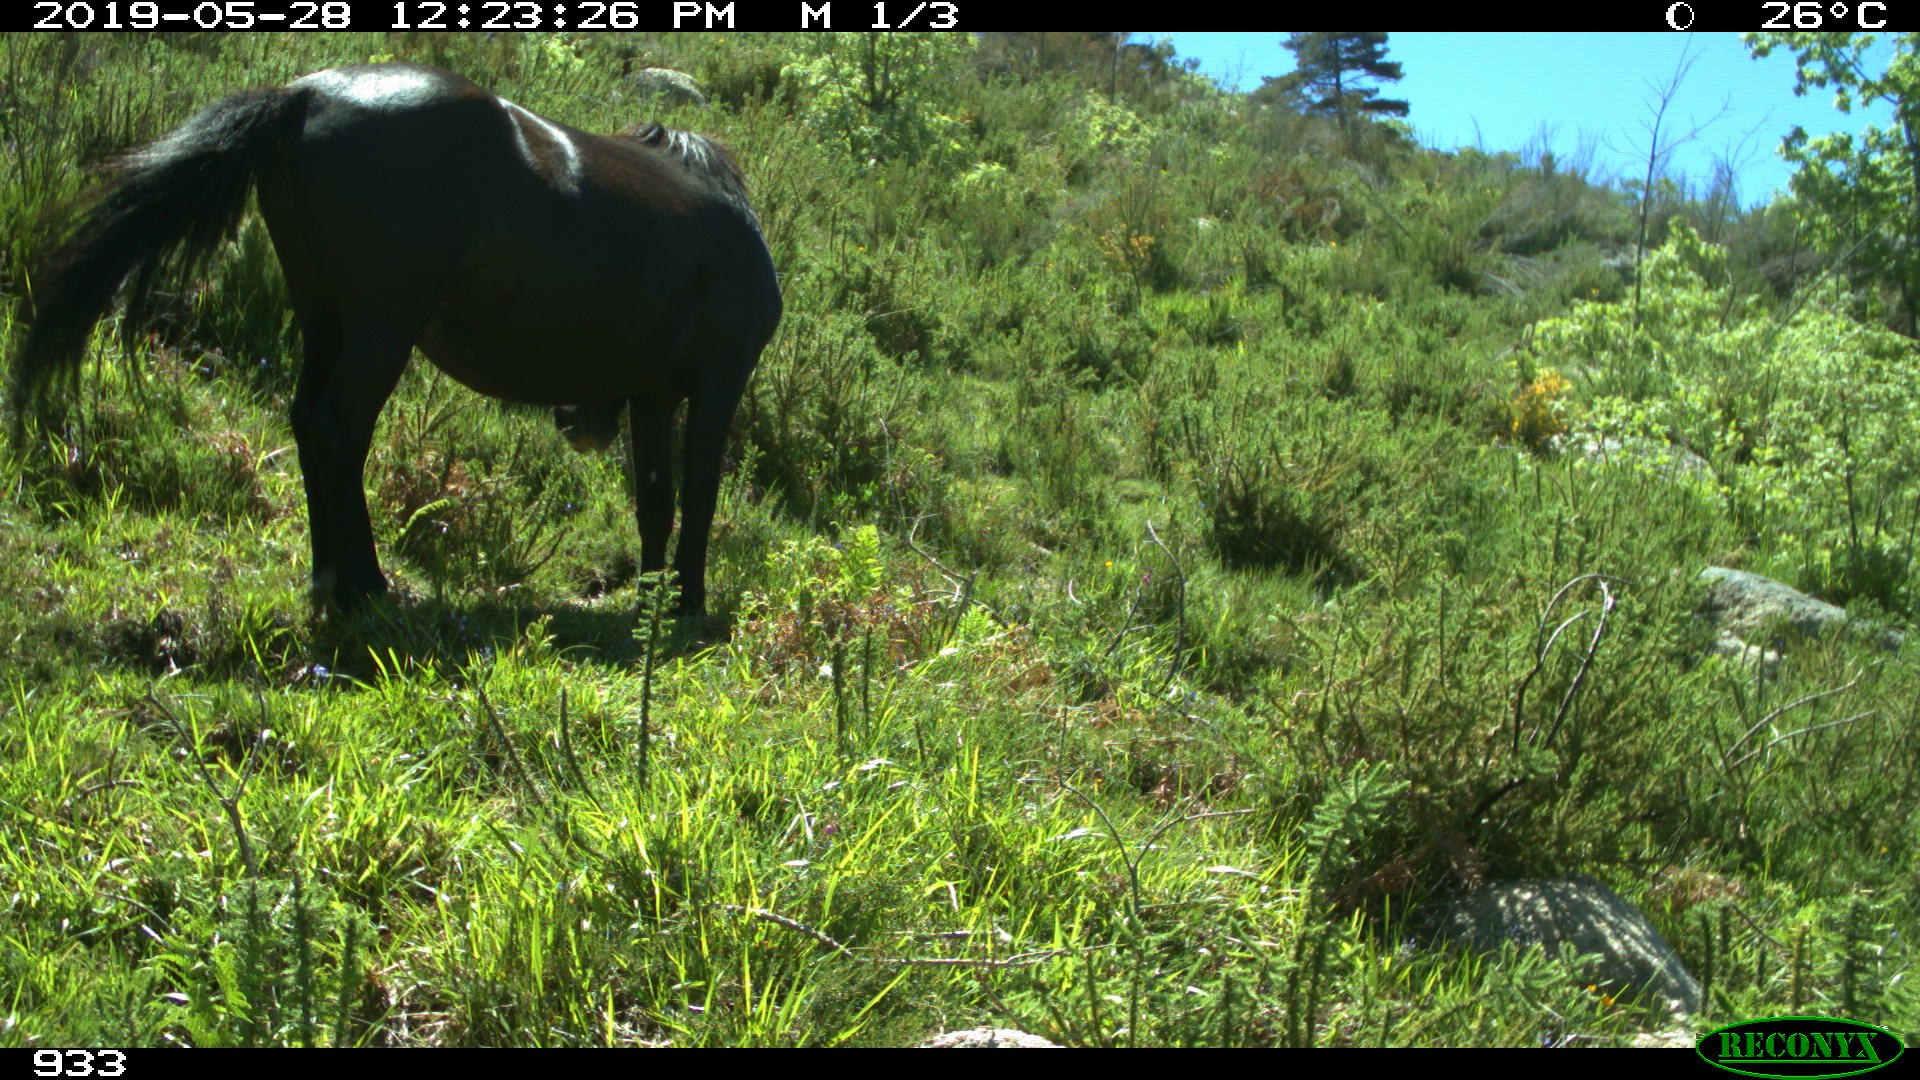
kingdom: Animalia
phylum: Chordata
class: Mammalia
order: Perissodactyla
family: Equidae
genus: Equus
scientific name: Equus caballus
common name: Horse
